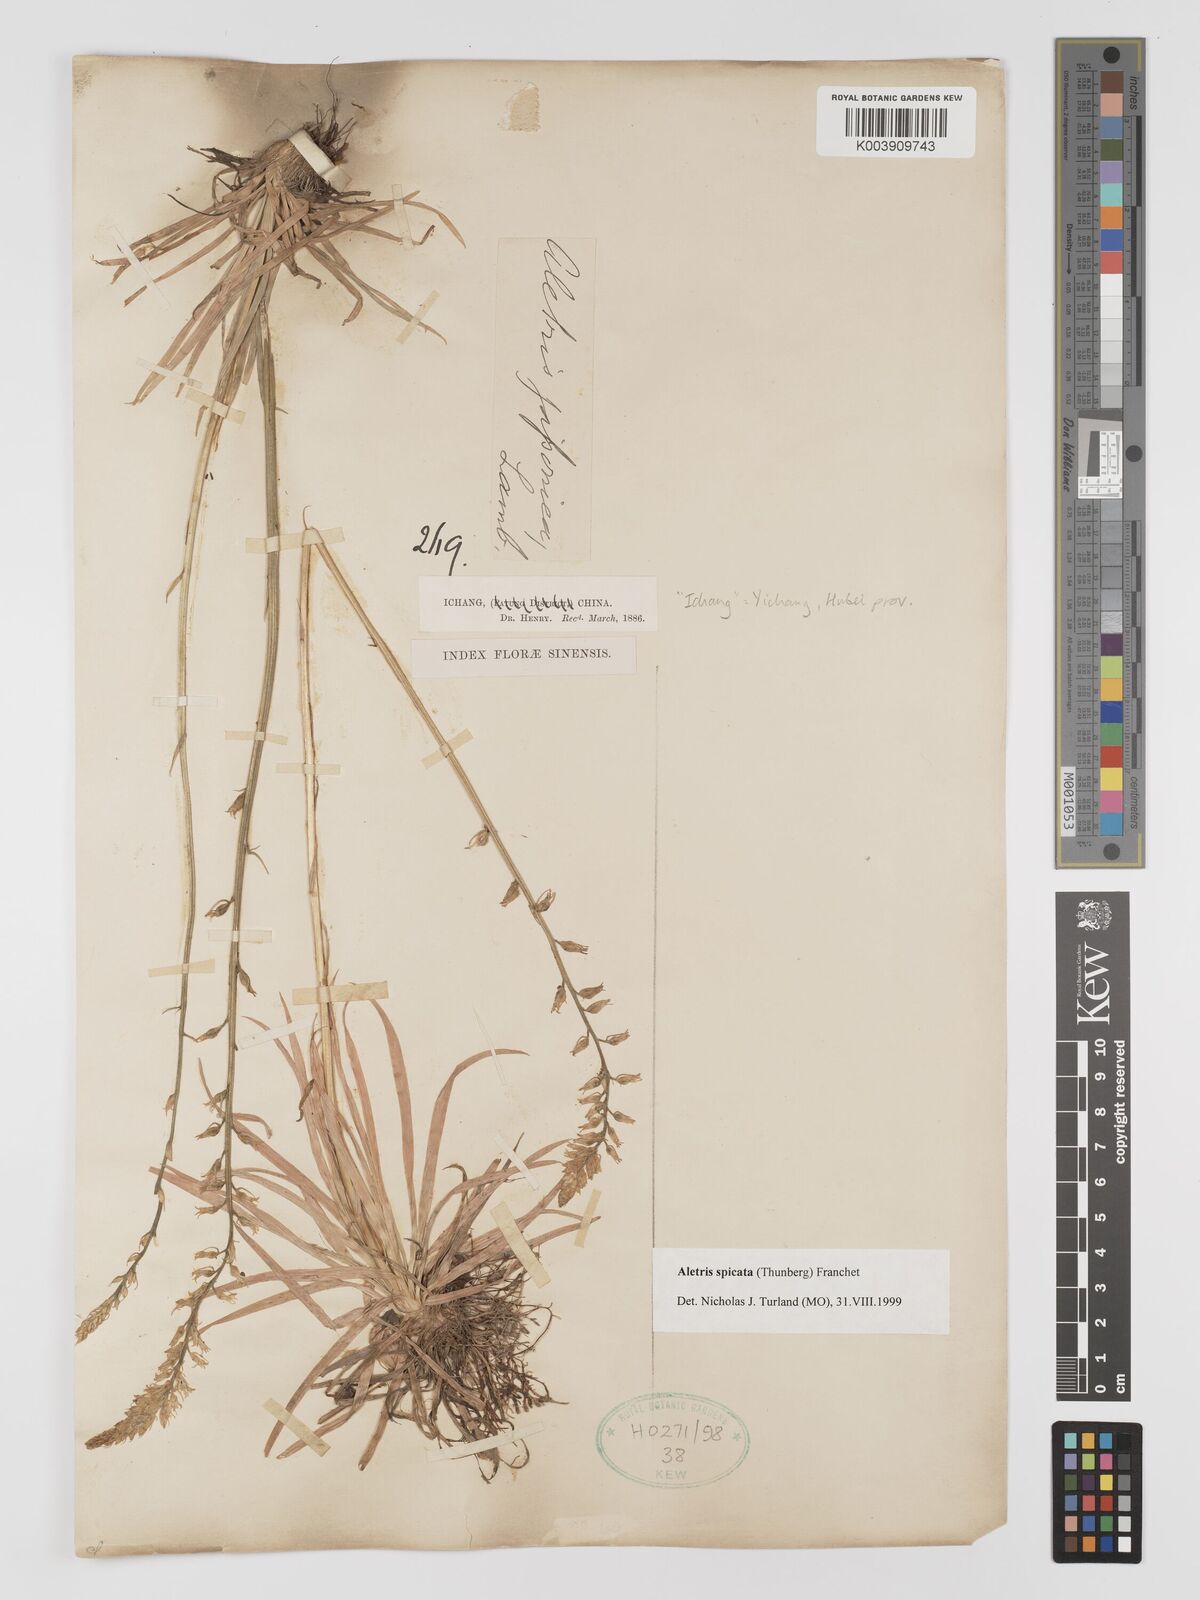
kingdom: Plantae
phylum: Tracheophyta
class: Liliopsida
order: Dioscoreales
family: Nartheciaceae
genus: Aletris
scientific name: Aletris spicata
